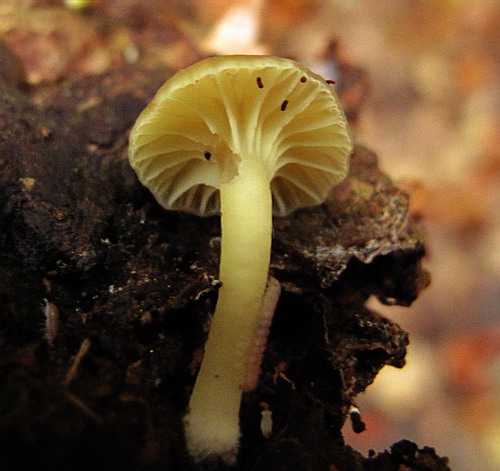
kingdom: Fungi
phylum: Basidiomycota
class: Agaricomycetes
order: Agaricales
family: Hygrophoraceae
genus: Chrysomphalina
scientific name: Chrysomphalina grossula
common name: stød-gyldenblad
